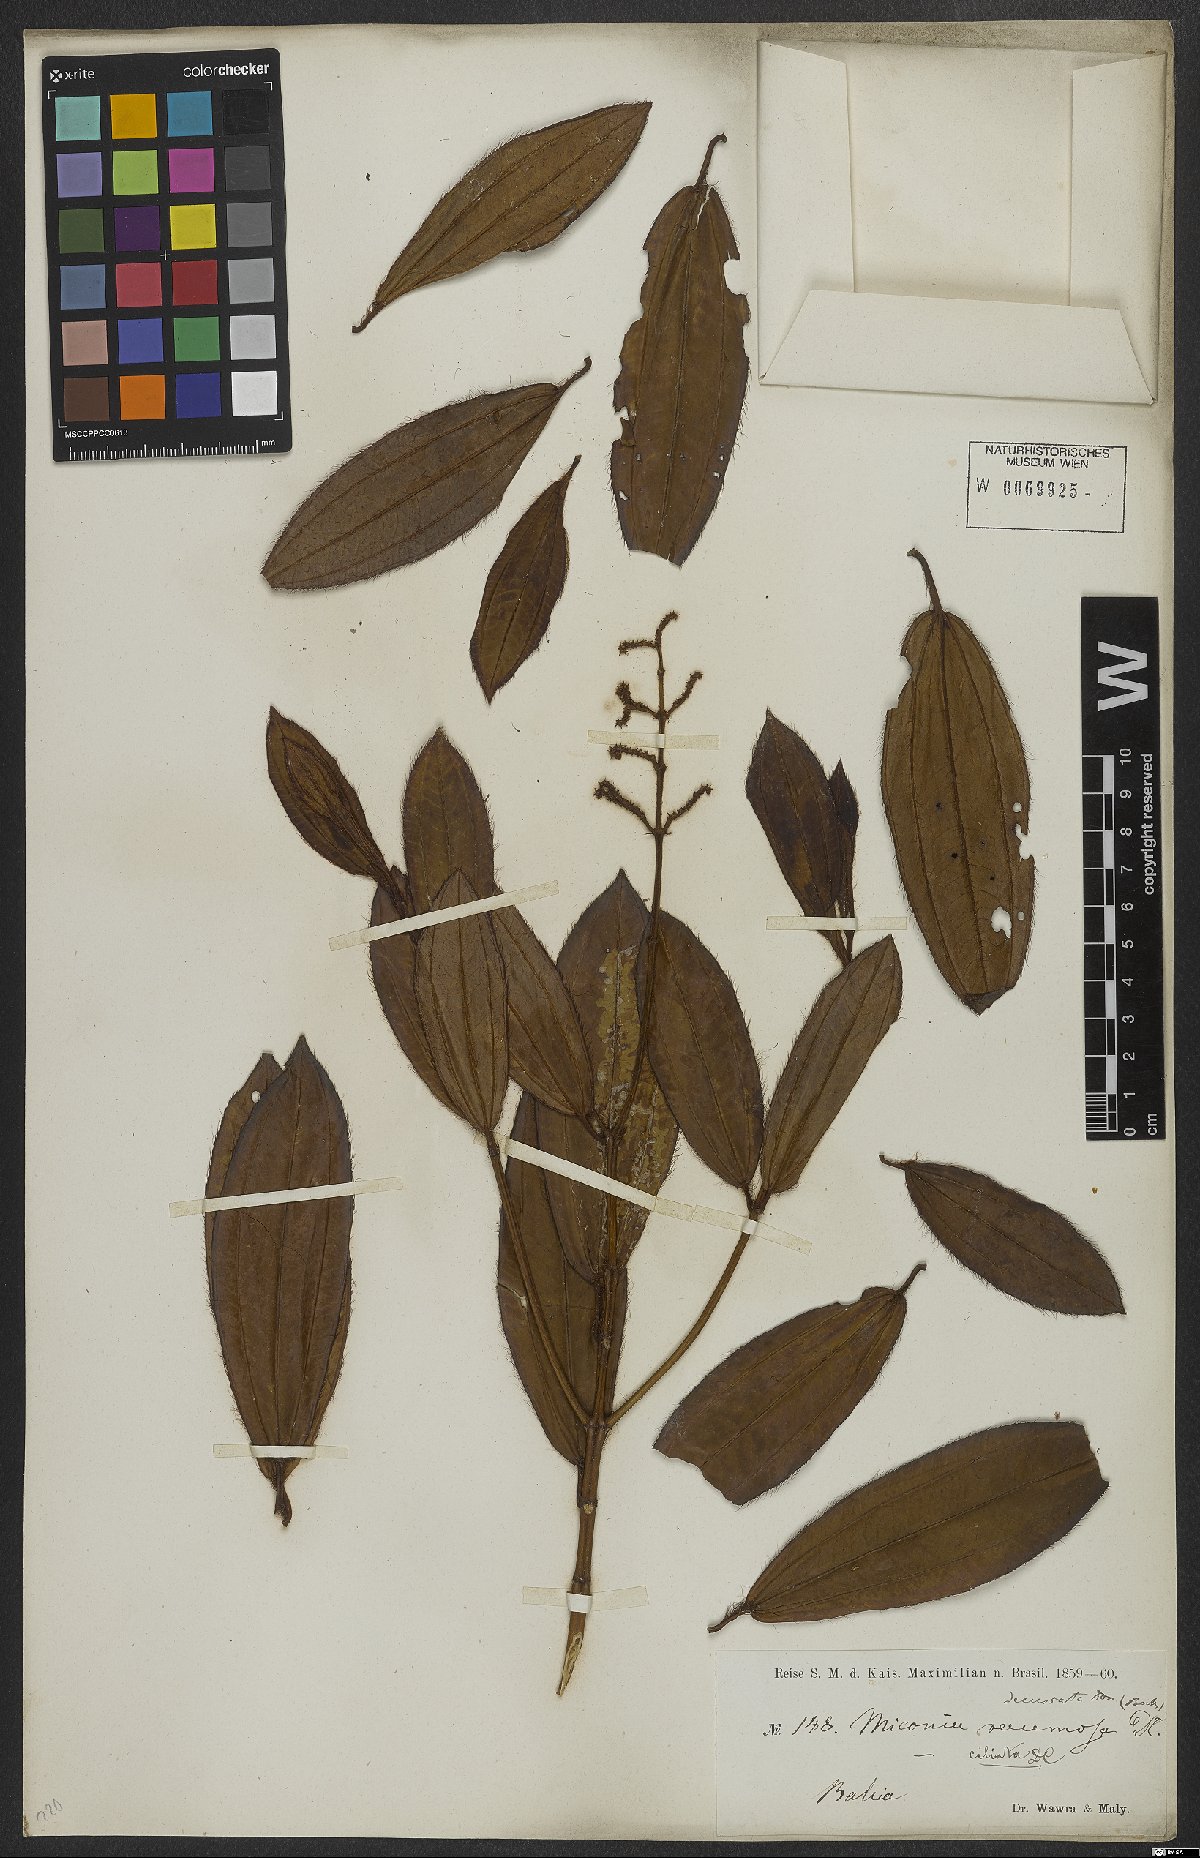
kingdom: Plantae
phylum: Tracheophyta
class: Magnoliopsida
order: Myrtales
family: Melastomataceae
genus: Miconia
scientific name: Miconia ciliata
